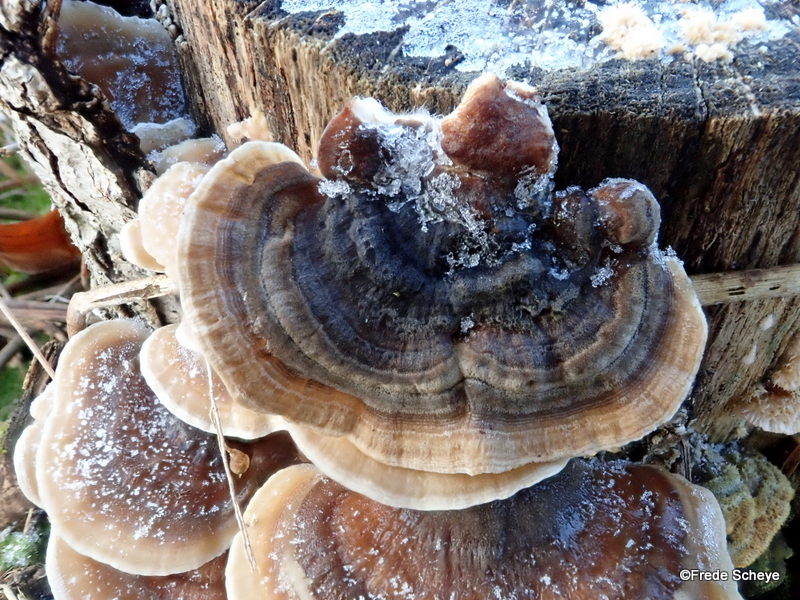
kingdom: Fungi
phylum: Basidiomycota
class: Agaricomycetes
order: Polyporales
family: Polyporaceae
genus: Trametes
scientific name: Trametes versicolor
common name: broget læderporesvamp
